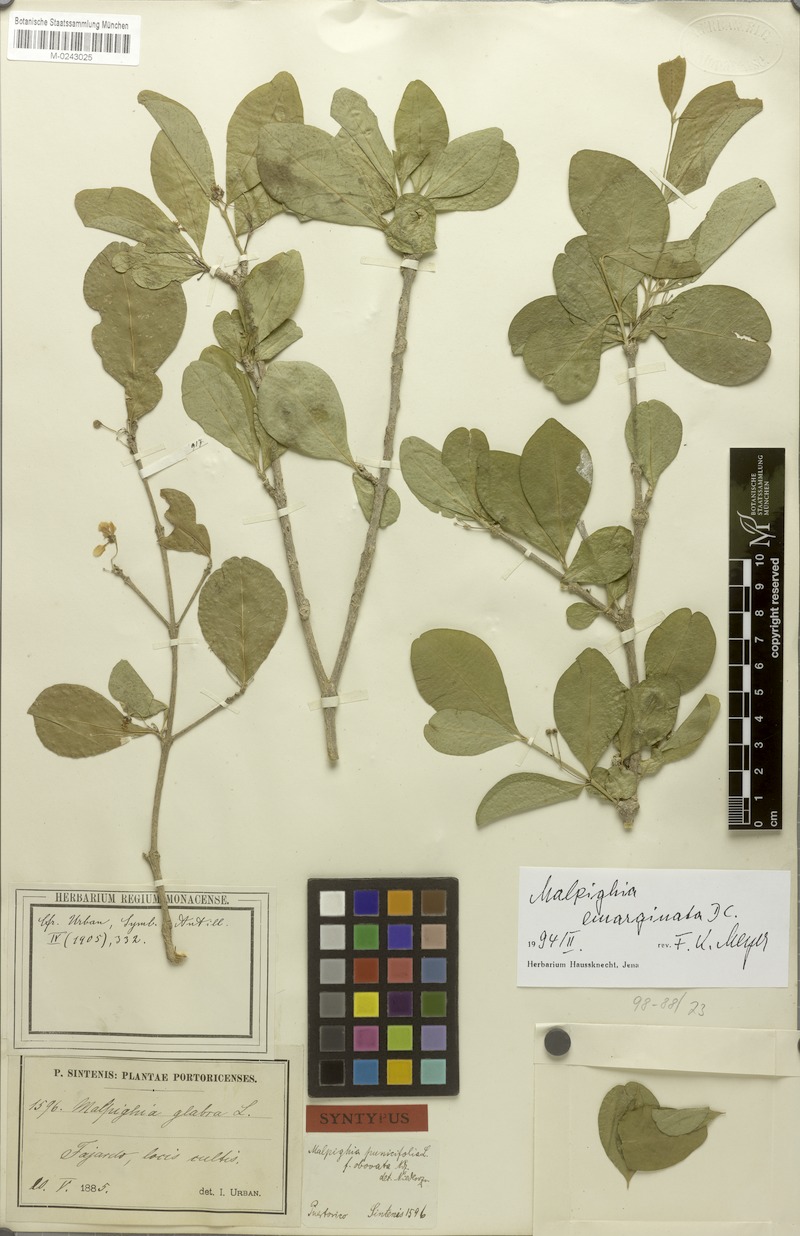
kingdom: Plantae
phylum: Tracheophyta
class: Magnoliopsida
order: Malpighiales
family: Malpighiaceae
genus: Malpighia
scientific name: Malpighia emarginata
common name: Barbados cherry
